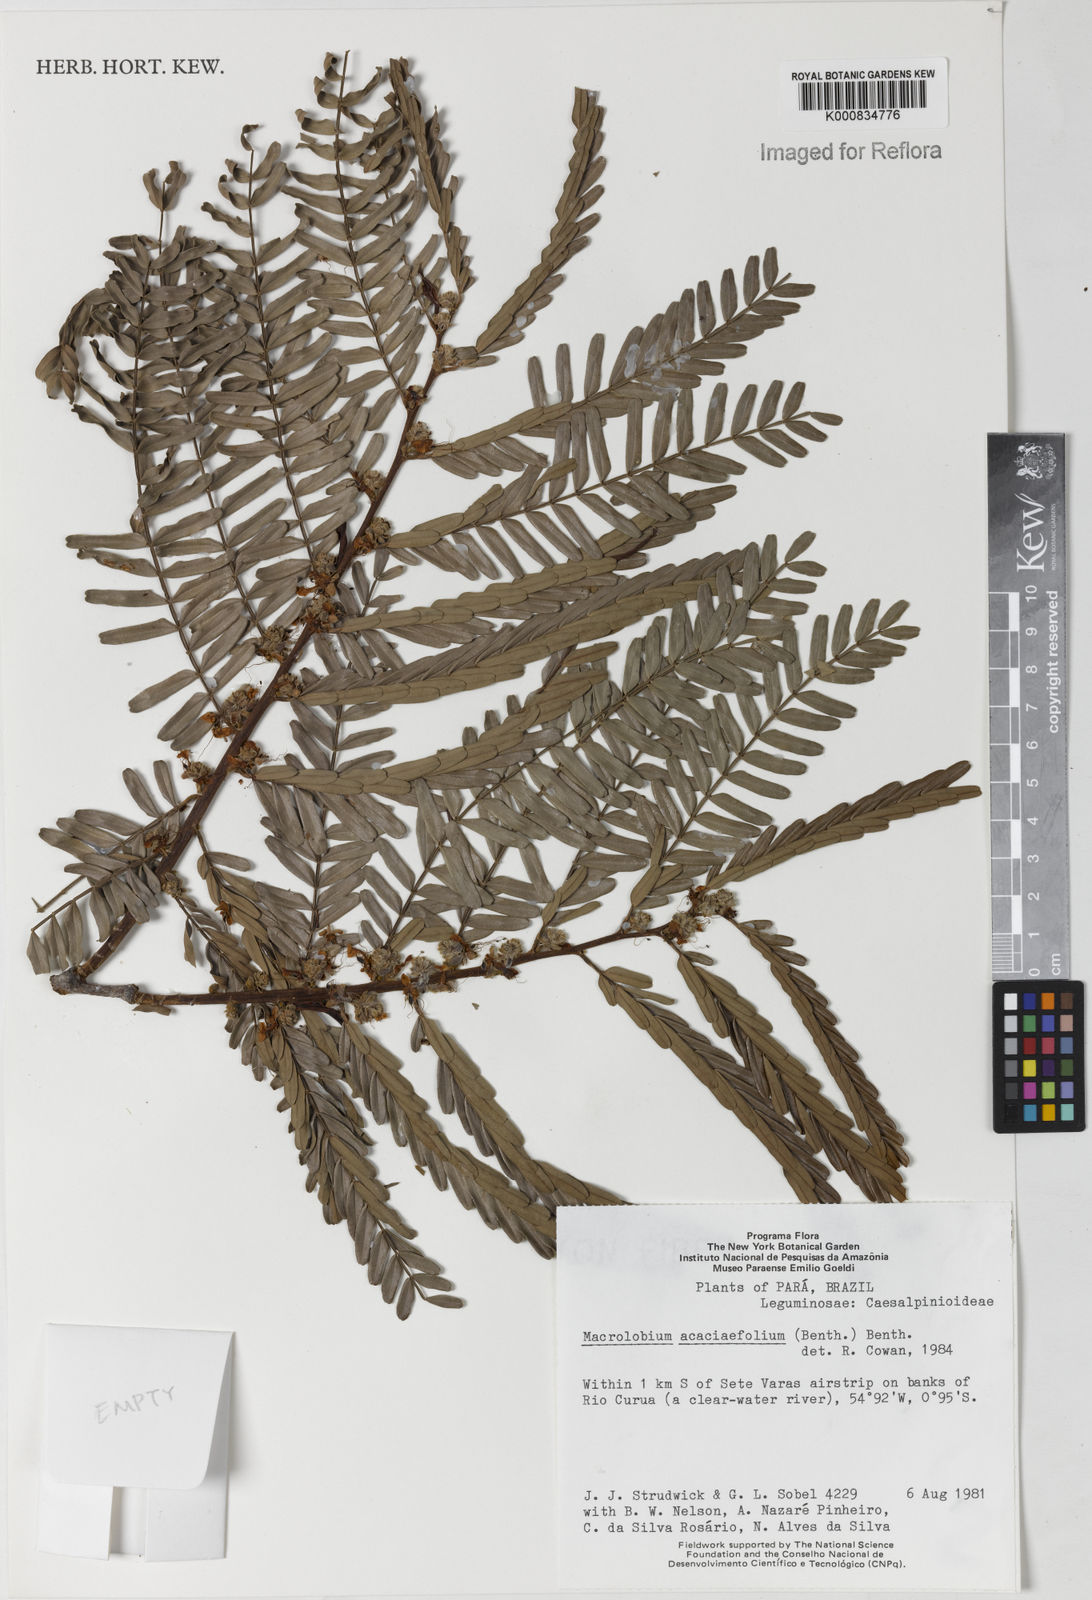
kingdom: Plantae
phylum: Tracheophyta
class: Magnoliopsida
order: Fabales
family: Fabaceae
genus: Macrolobium
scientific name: Macrolobium acaciifolium
